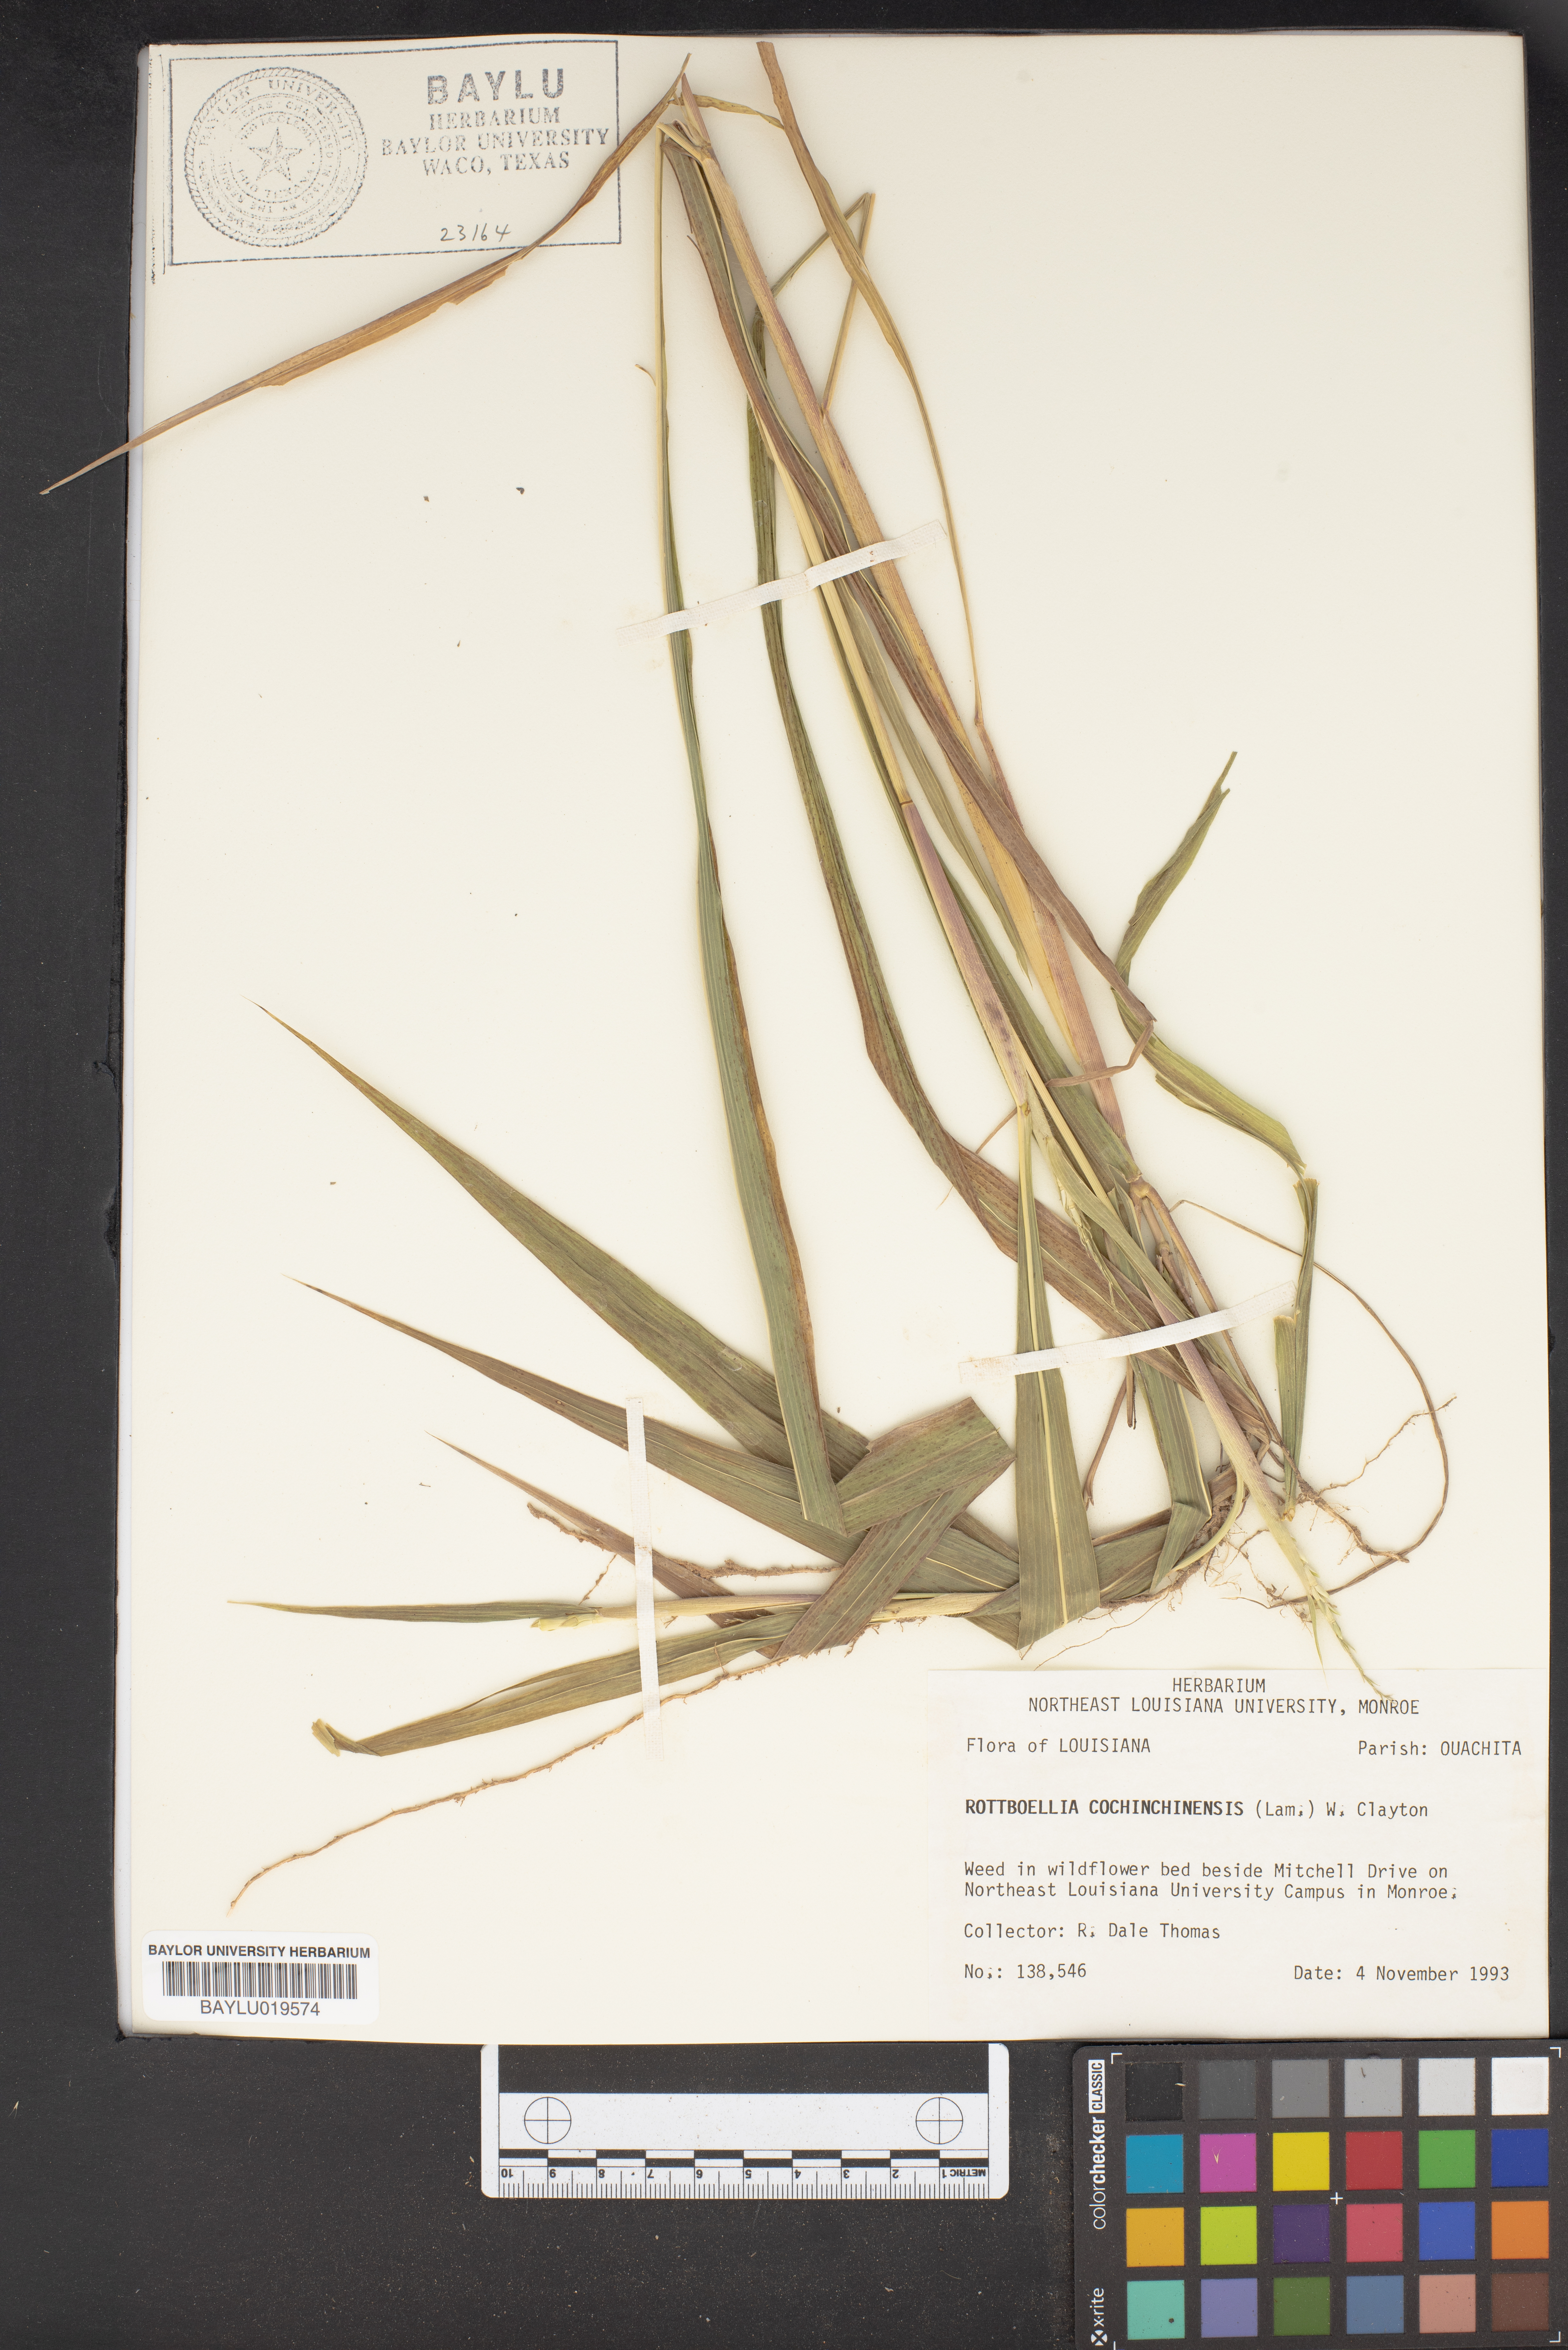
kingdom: Plantae
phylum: Tracheophyta
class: Liliopsida
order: Poales
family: Poaceae
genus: Rottboellia
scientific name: Rottboellia cochinchinensis
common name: Itchgrass
